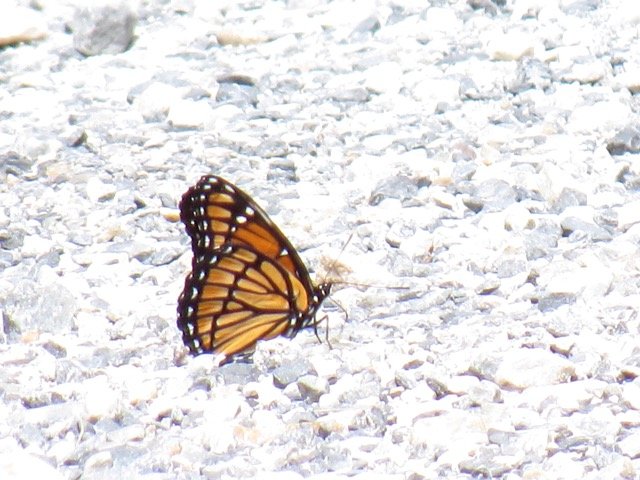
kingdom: Animalia
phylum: Arthropoda
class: Insecta
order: Lepidoptera
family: Nymphalidae
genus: Limenitis
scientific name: Limenitis archippus
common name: Viceroy
